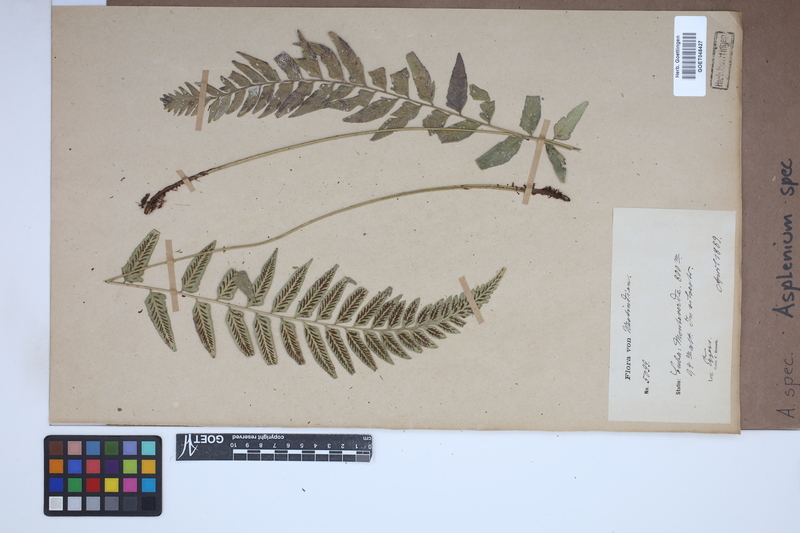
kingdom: Plantae
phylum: Tracheophyta
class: Polypodiopsida
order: Polypodiales
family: Aspleniaceae
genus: Asplenium
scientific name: Asplenium
